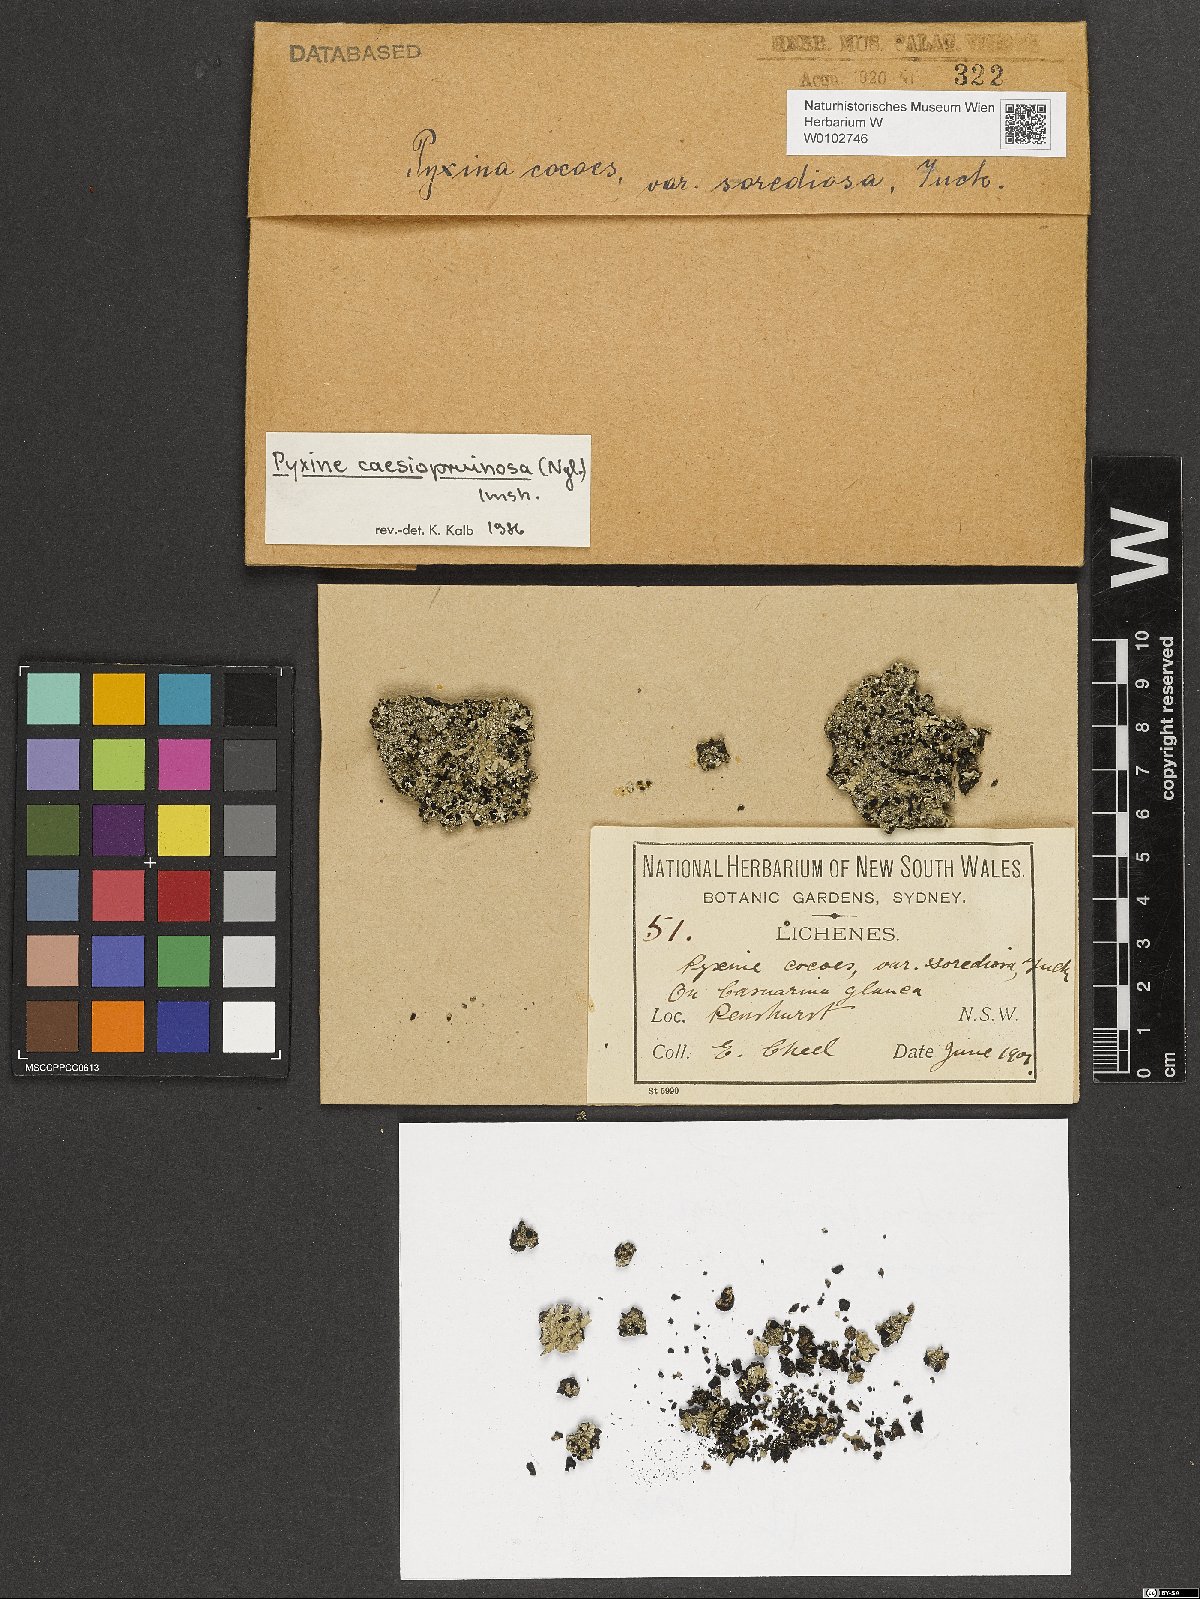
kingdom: Fungi
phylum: Ascomycota
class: Lecanoromycetes
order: Caliciales
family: Caliciaceae
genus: Pyxine
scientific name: Pyxine caesiopruinosa
